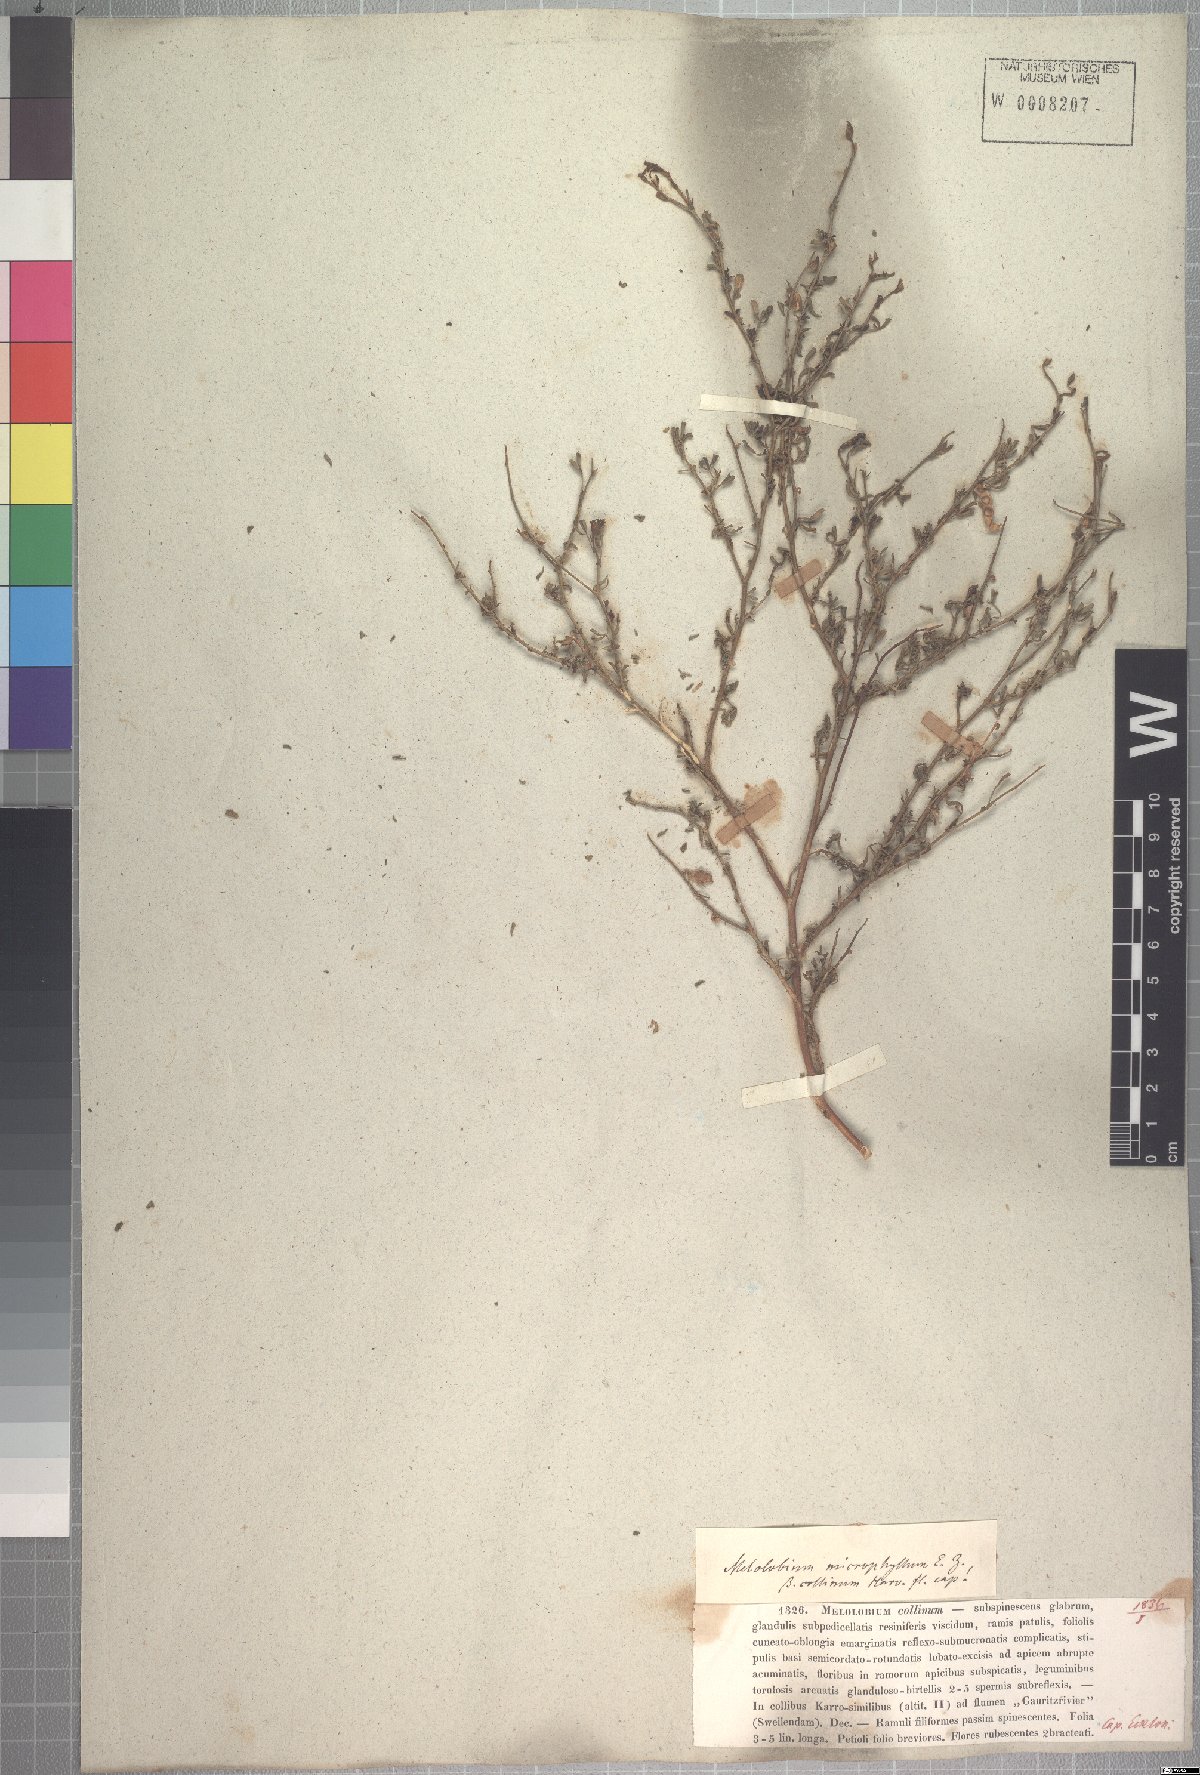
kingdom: Plantae
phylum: Tracheophyta
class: Magnoliopsida
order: Fabales
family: Fabaceae
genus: Melolobium
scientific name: Melolobium adenodes
